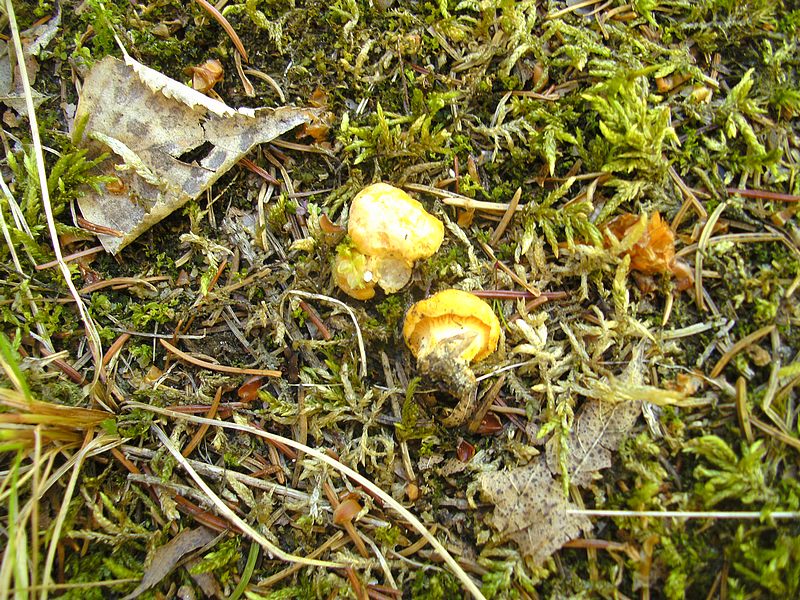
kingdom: Fungi
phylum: Basidiomycota
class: Agaricomycetes
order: Cantharellales
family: Hydnaceae
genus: Cantharellus
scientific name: Cantharellus cibarius
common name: almindelig kantarel
